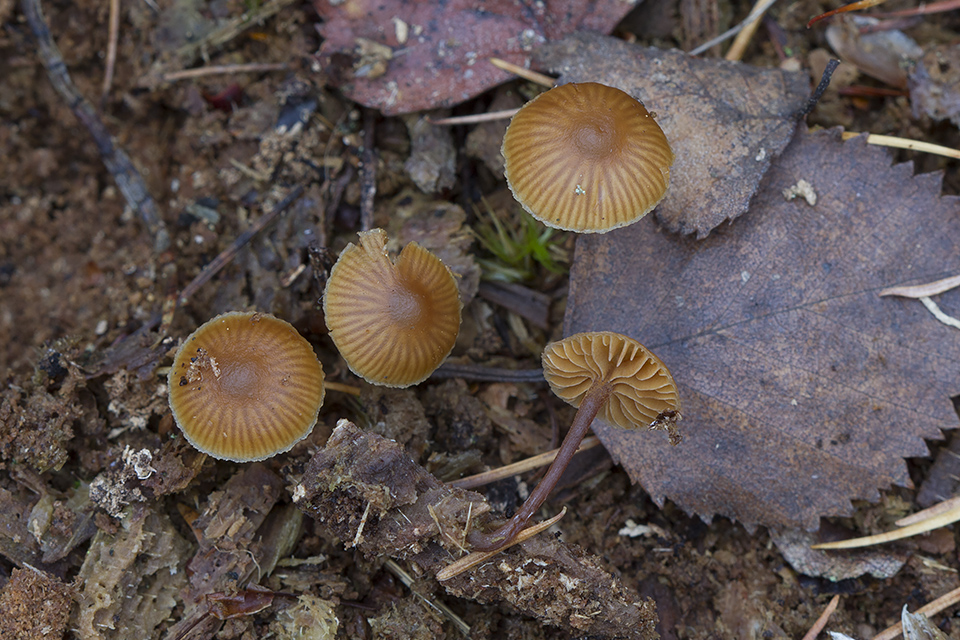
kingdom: Fungi
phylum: Basidiomycota
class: Agaricomycetes
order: Agaricales
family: Hymenogastraceae
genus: Galerina
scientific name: Galerina triscopa
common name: spidspuklet hjelmhat
